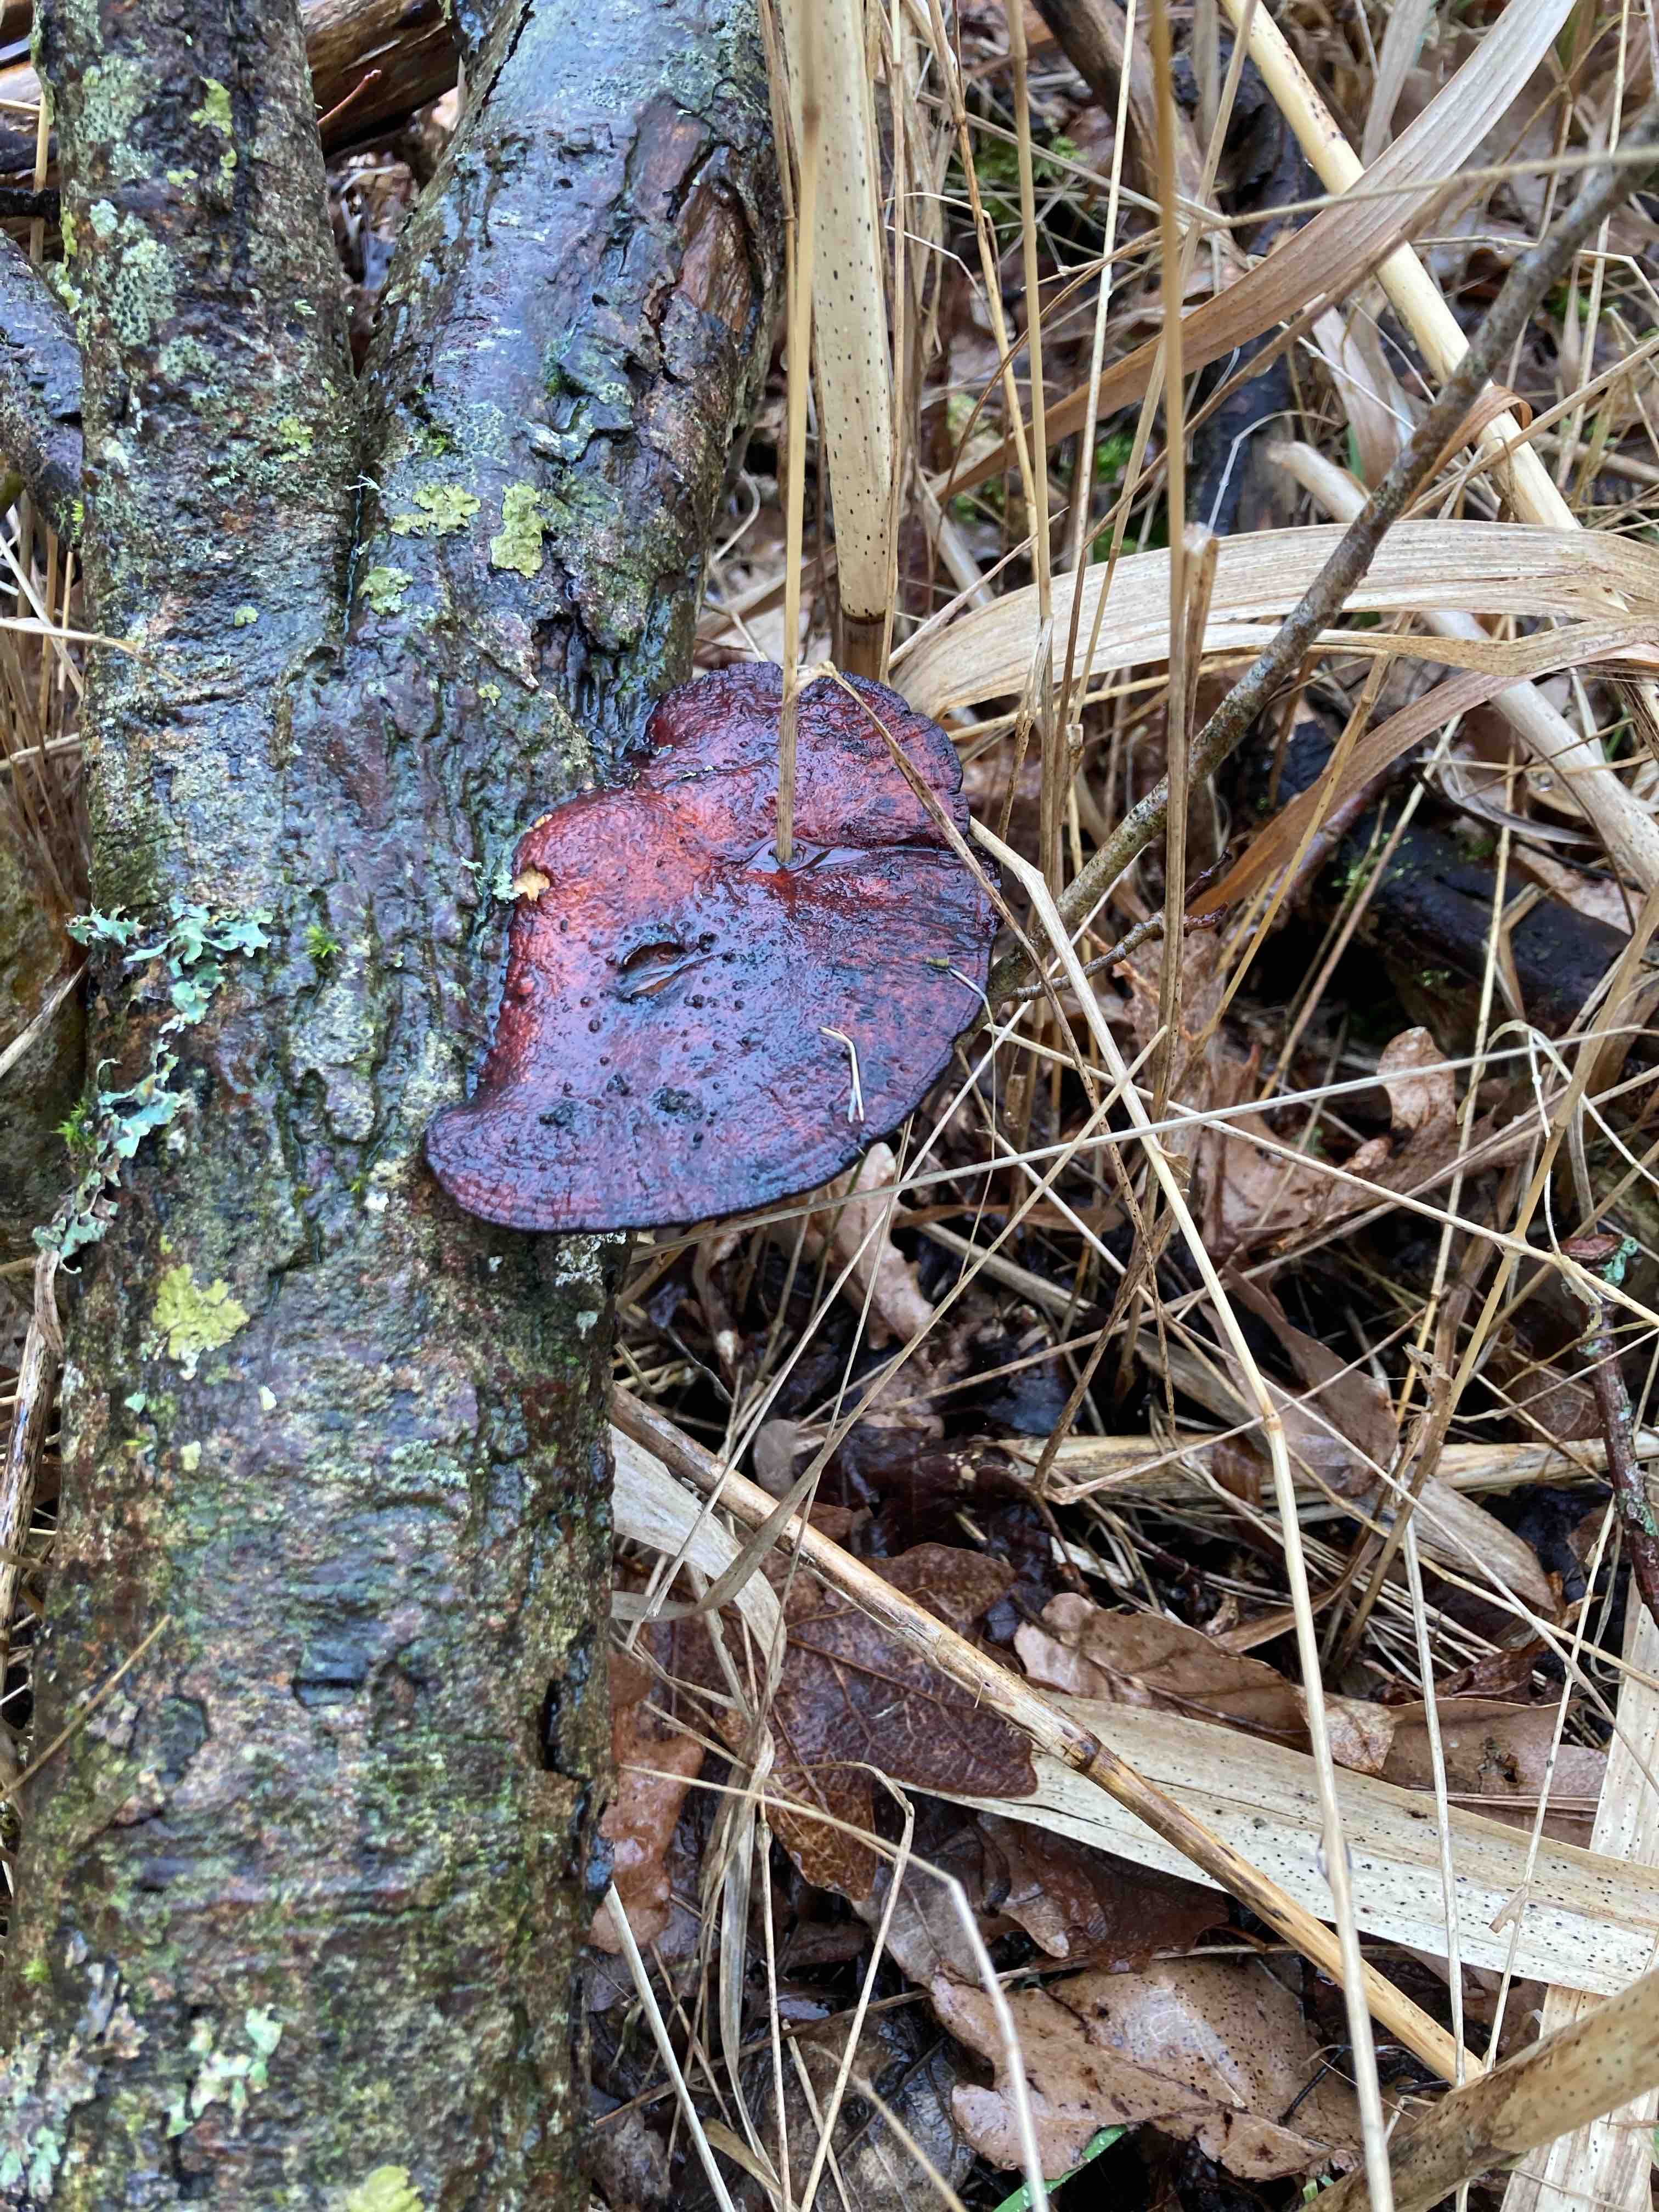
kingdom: Fungi
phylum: Basidiomycota
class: Agaricomycetes
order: Polyporales
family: Polyporaceae
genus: Daedaleopsis
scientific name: Daedaleopsis confragosa
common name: rødmende læderporesvamp
